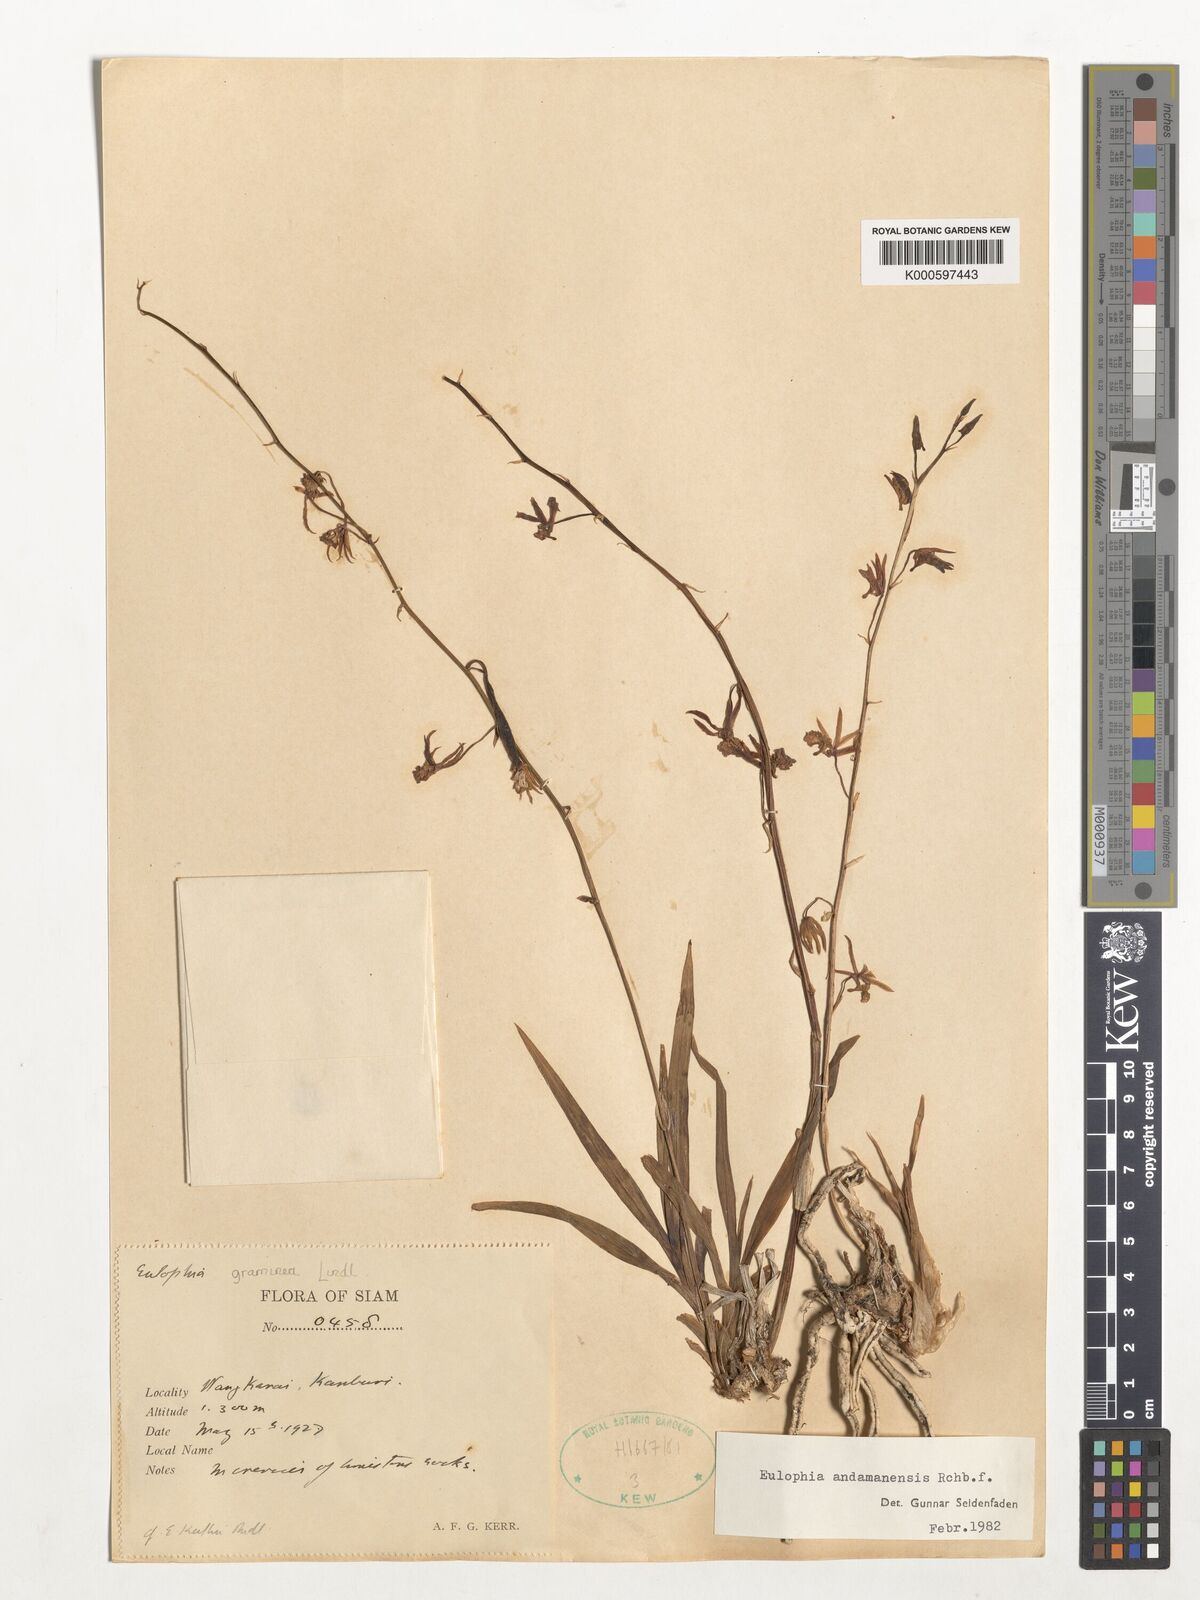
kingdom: Plantae
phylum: Tracheophyta
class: Liliopsida
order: Asparagales
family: Orchidaceae
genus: Eulophia
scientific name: Eulophia andamanensis
